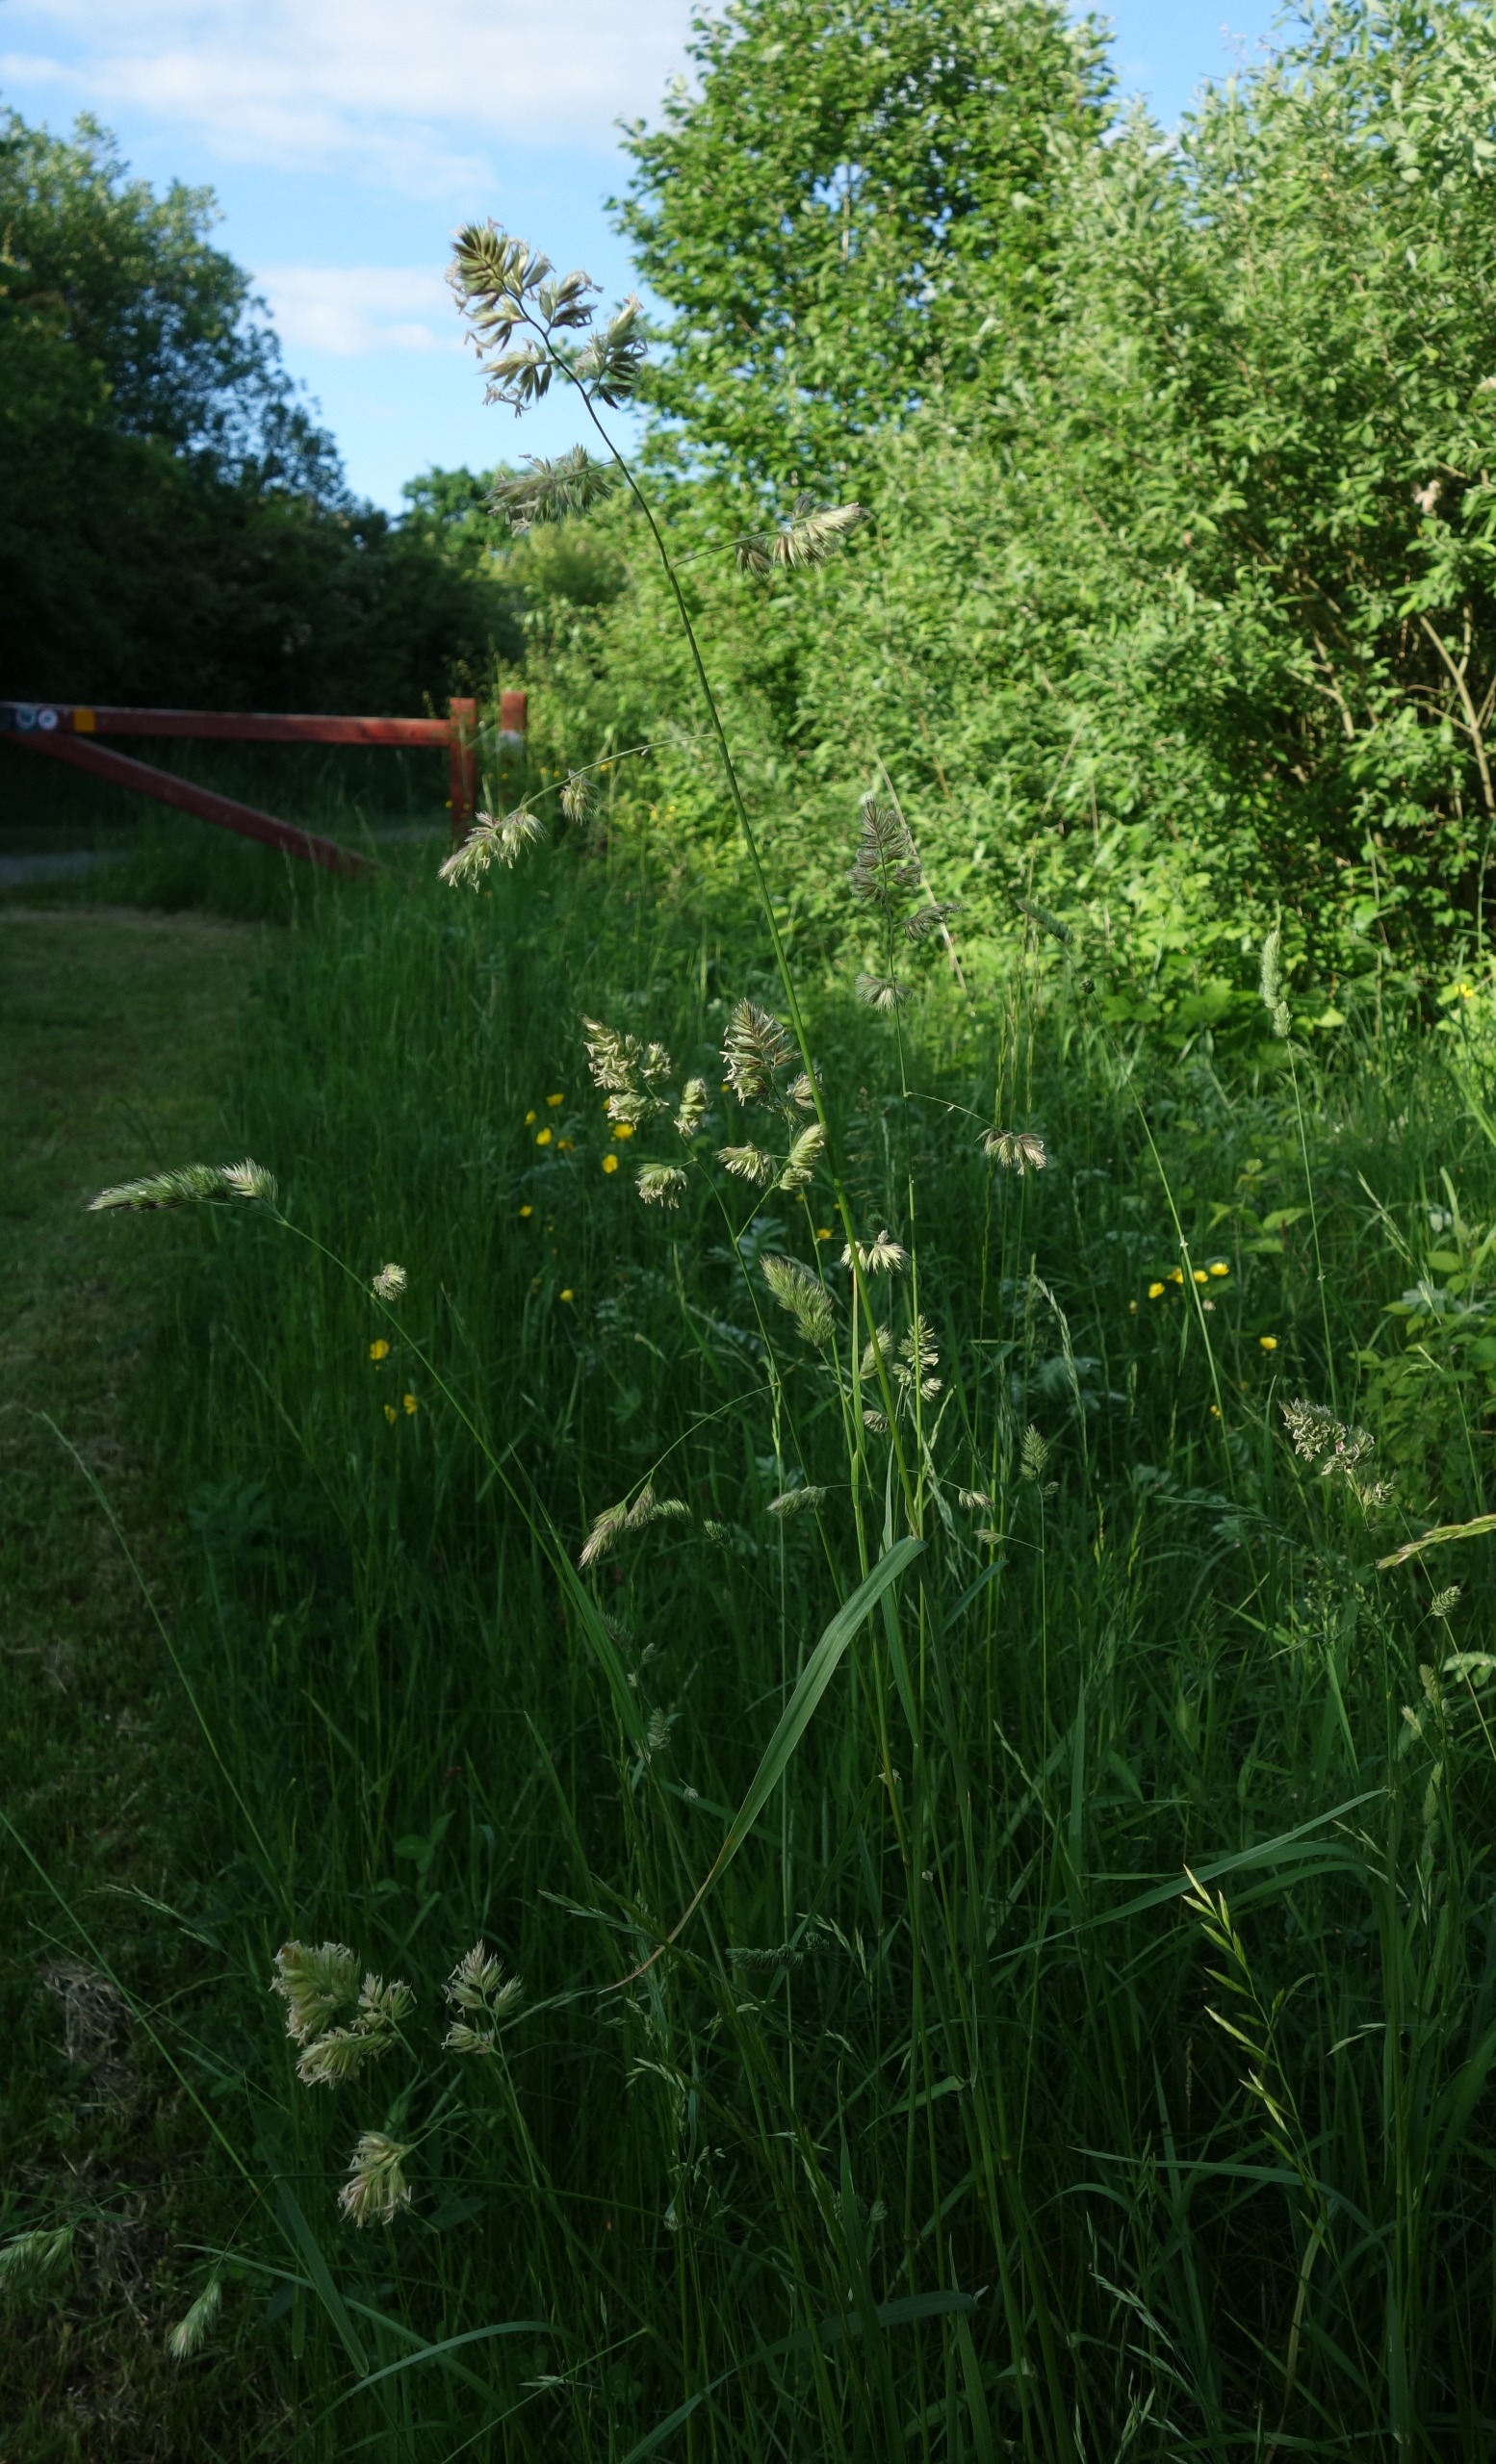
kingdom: Plantae
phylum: Tracheophyta
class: Liliopsida
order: Poales
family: Poaceae
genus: Dactylis
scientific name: Dactylis glomerata
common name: Almindelig hundegræs
